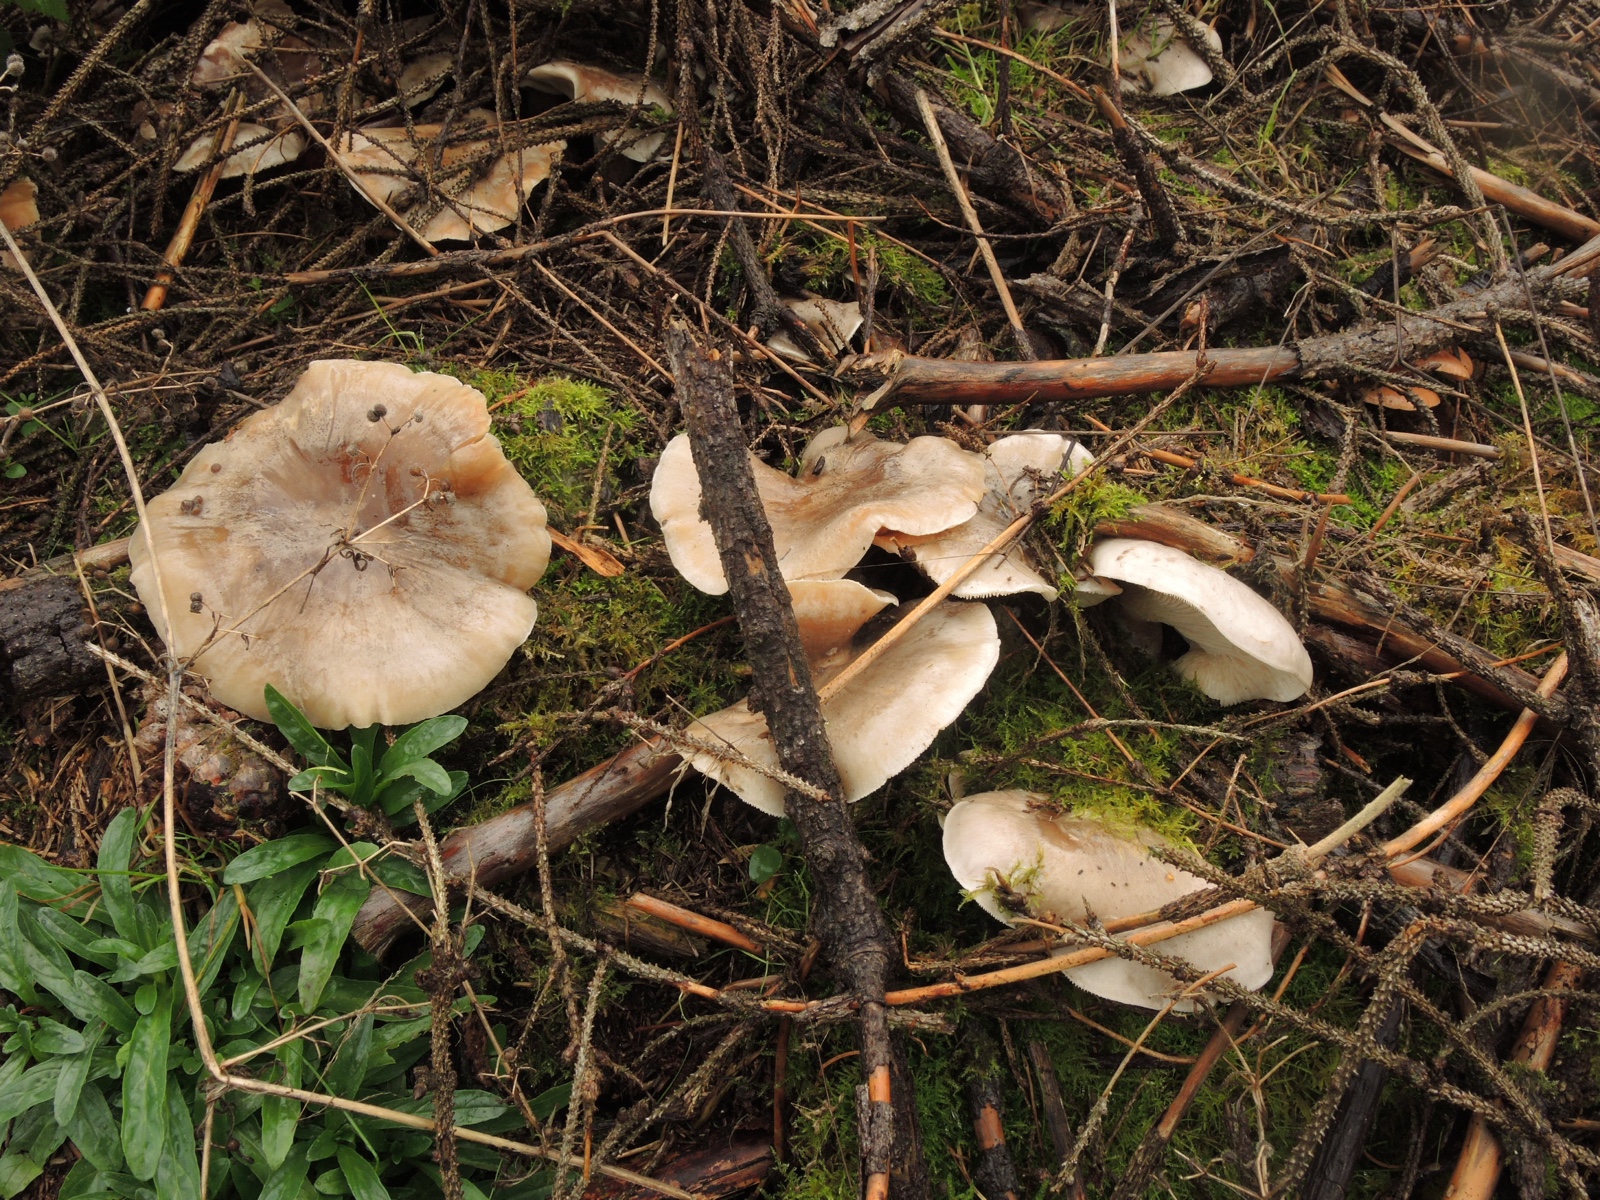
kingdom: Fungi
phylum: Basidiomycota
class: Agaricomycetes
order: Agaricales
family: Tricholomataceae
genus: Clitocybe
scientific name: Clitocybe nebularis
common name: tåge-tragthat
